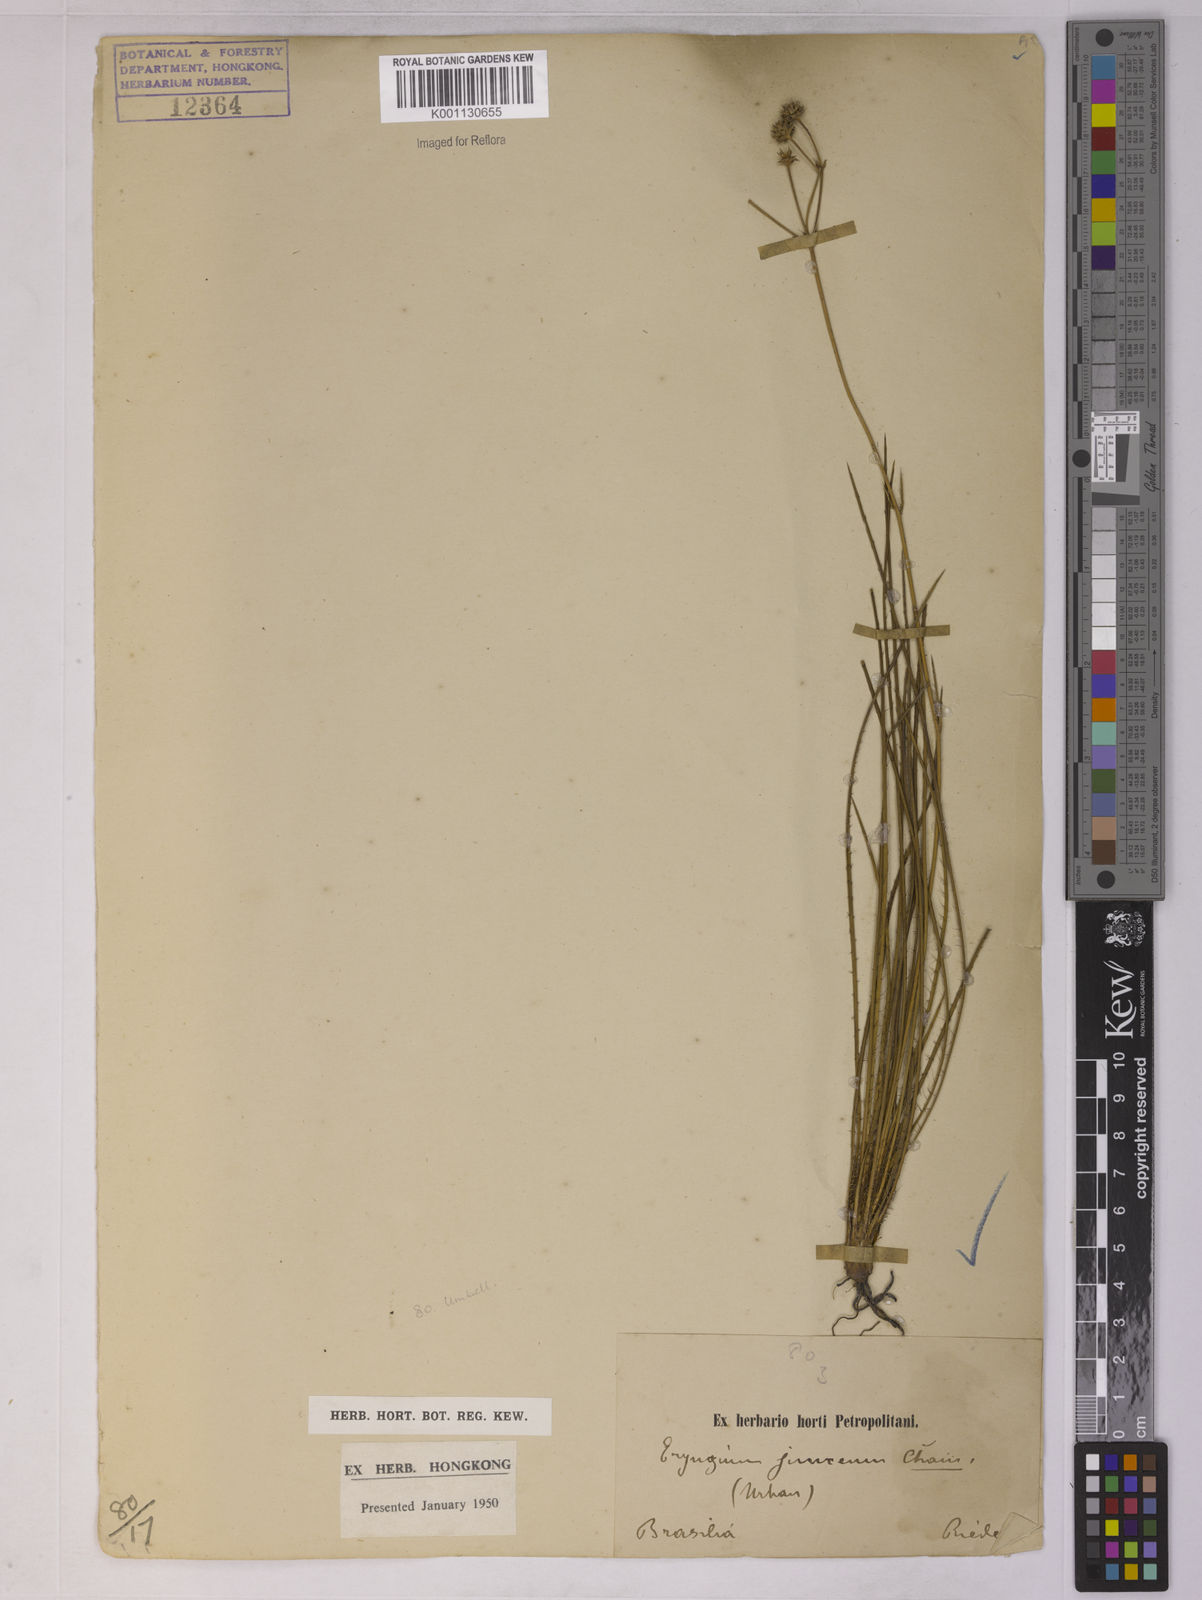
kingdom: Plantae
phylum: Tracheophyta
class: Magnoliopsida
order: Apiales
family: Apiaceae
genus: Eryngium
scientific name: Eryngium junceum
